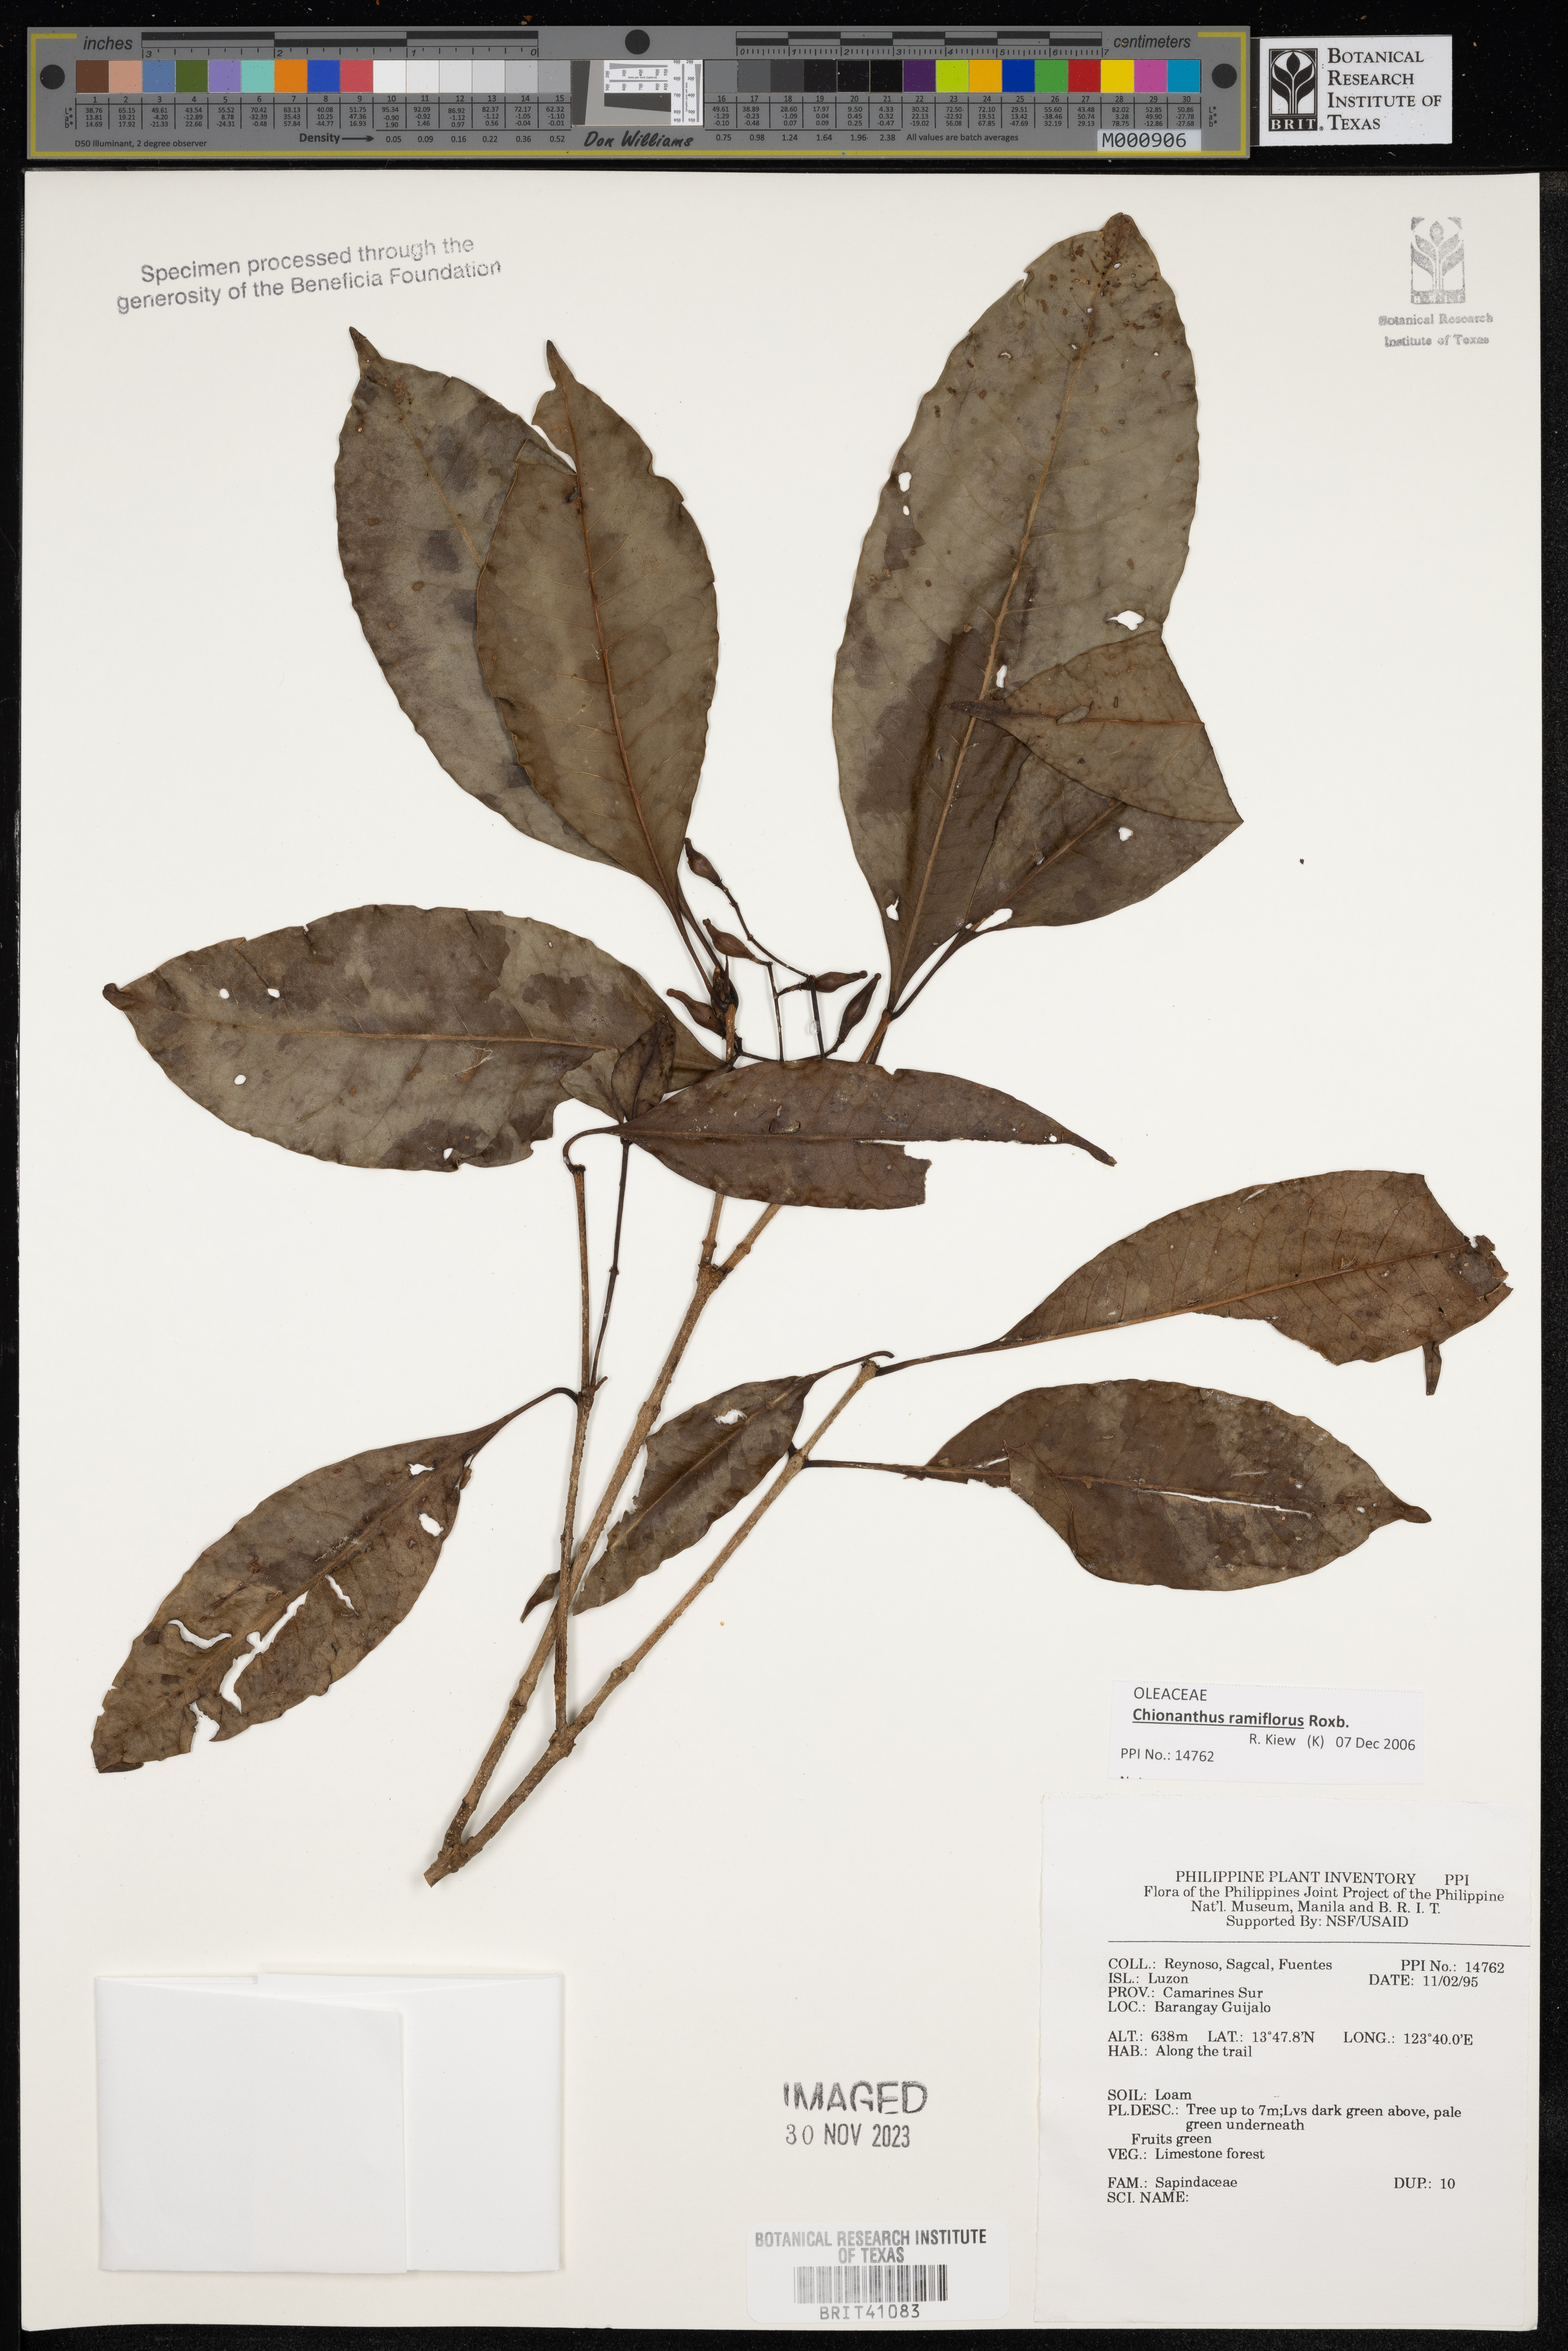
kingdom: Plantae
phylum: Tracheophyta
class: Magnoliopsida
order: Sapindales
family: Sapindaceae
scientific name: Sapindaceae
